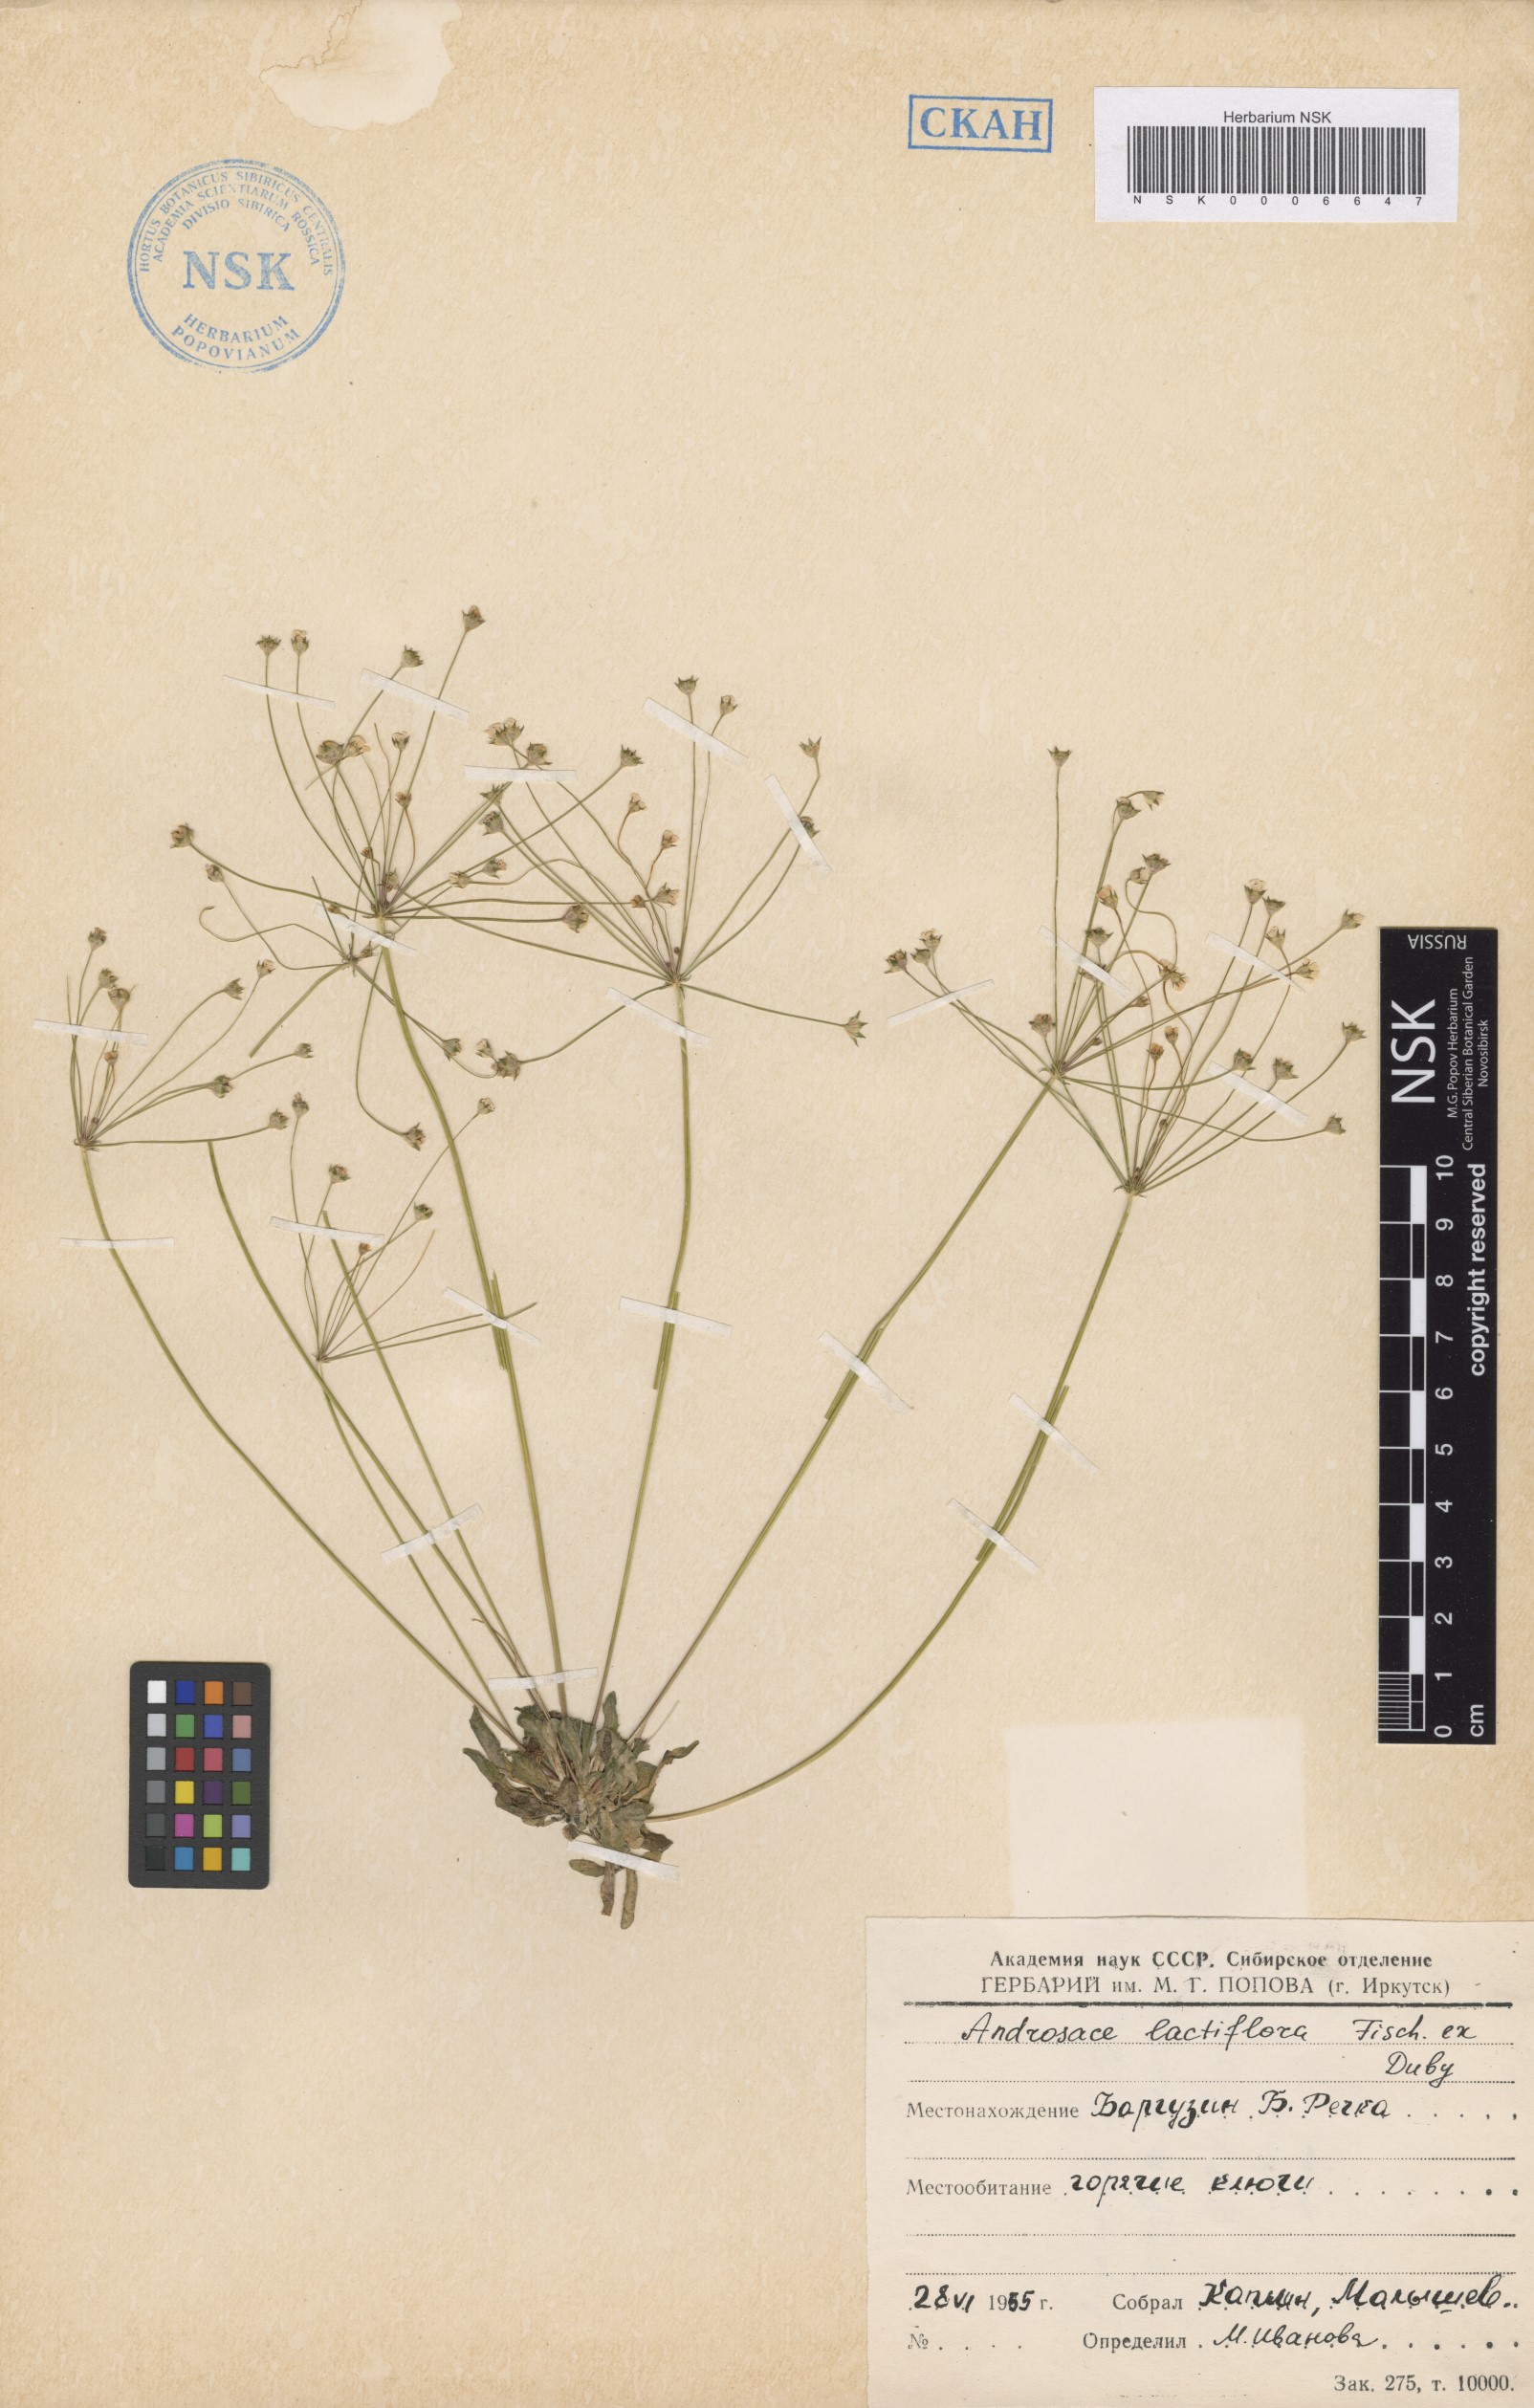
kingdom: Plantae
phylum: Tracheophyta
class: Magnoliopsida
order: Ericales
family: Primulaceae
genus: Androsace
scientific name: Androsace lactiflora
